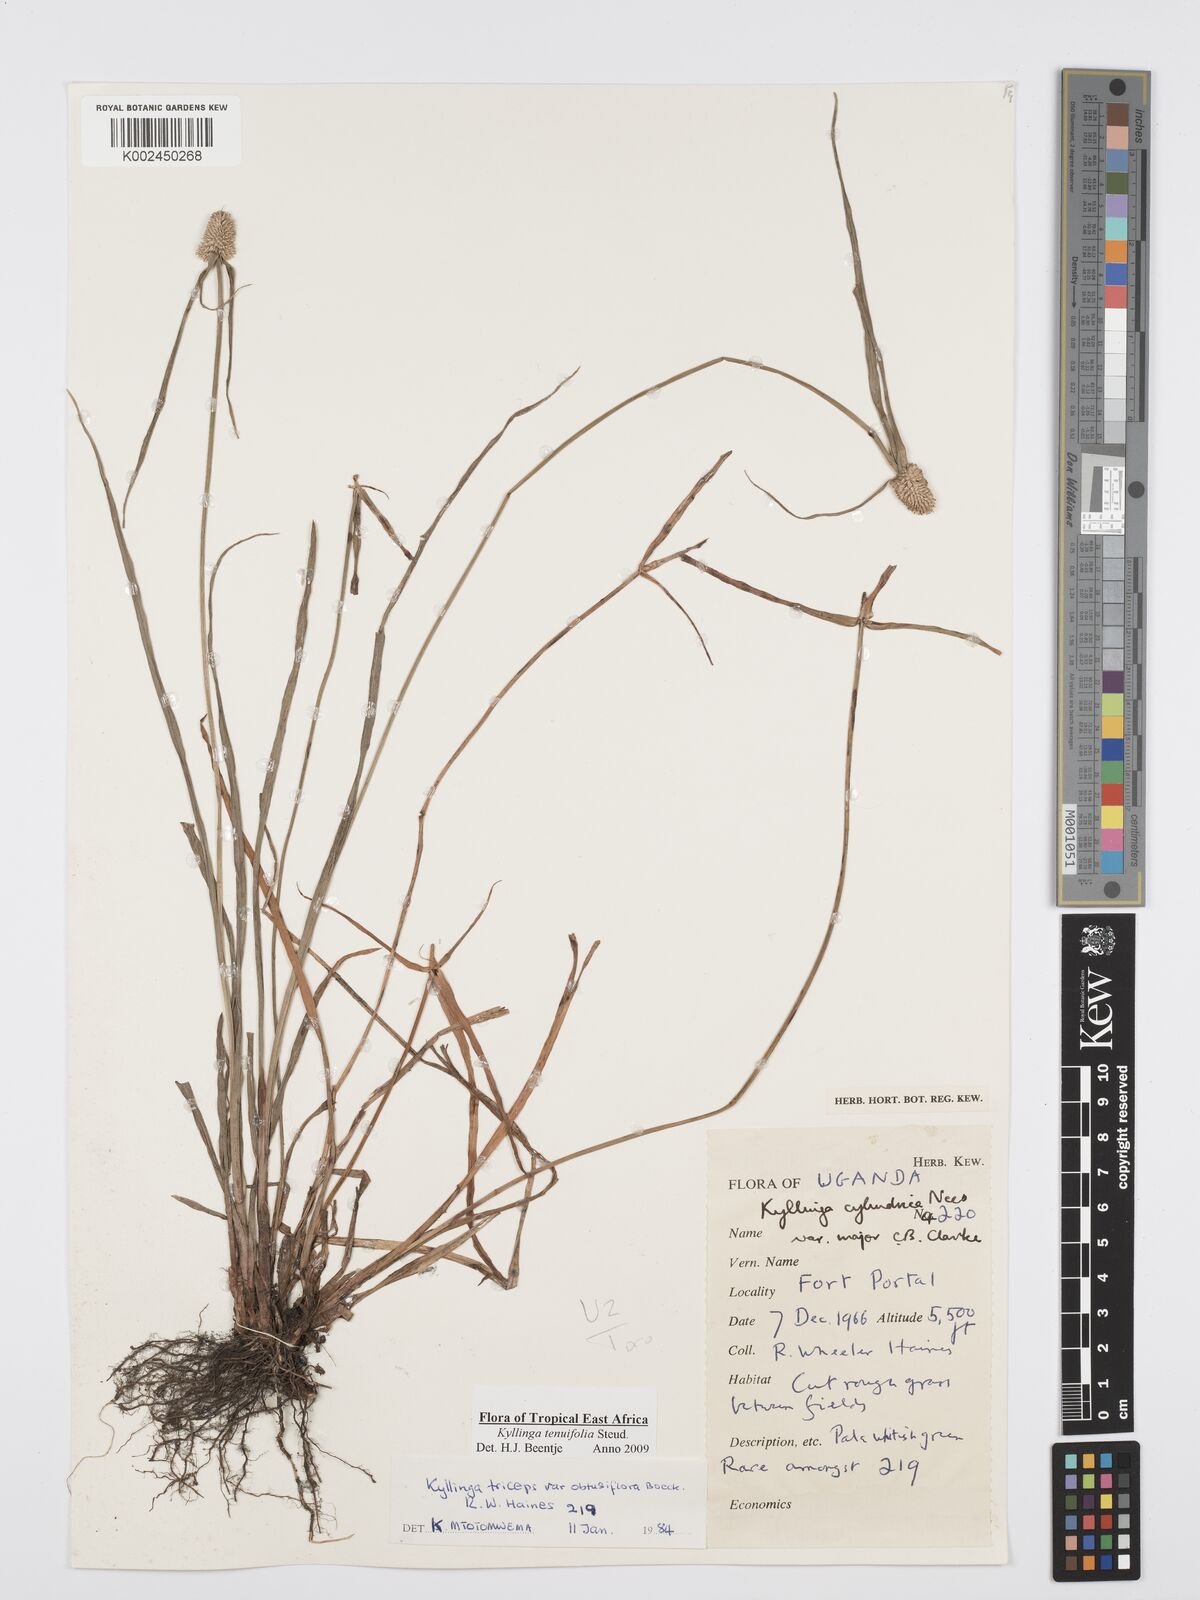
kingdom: Plantae
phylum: Tracheophyta
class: Liliopsida
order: Poales
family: Cyperaceae
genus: Cyperus
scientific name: Cyperus
